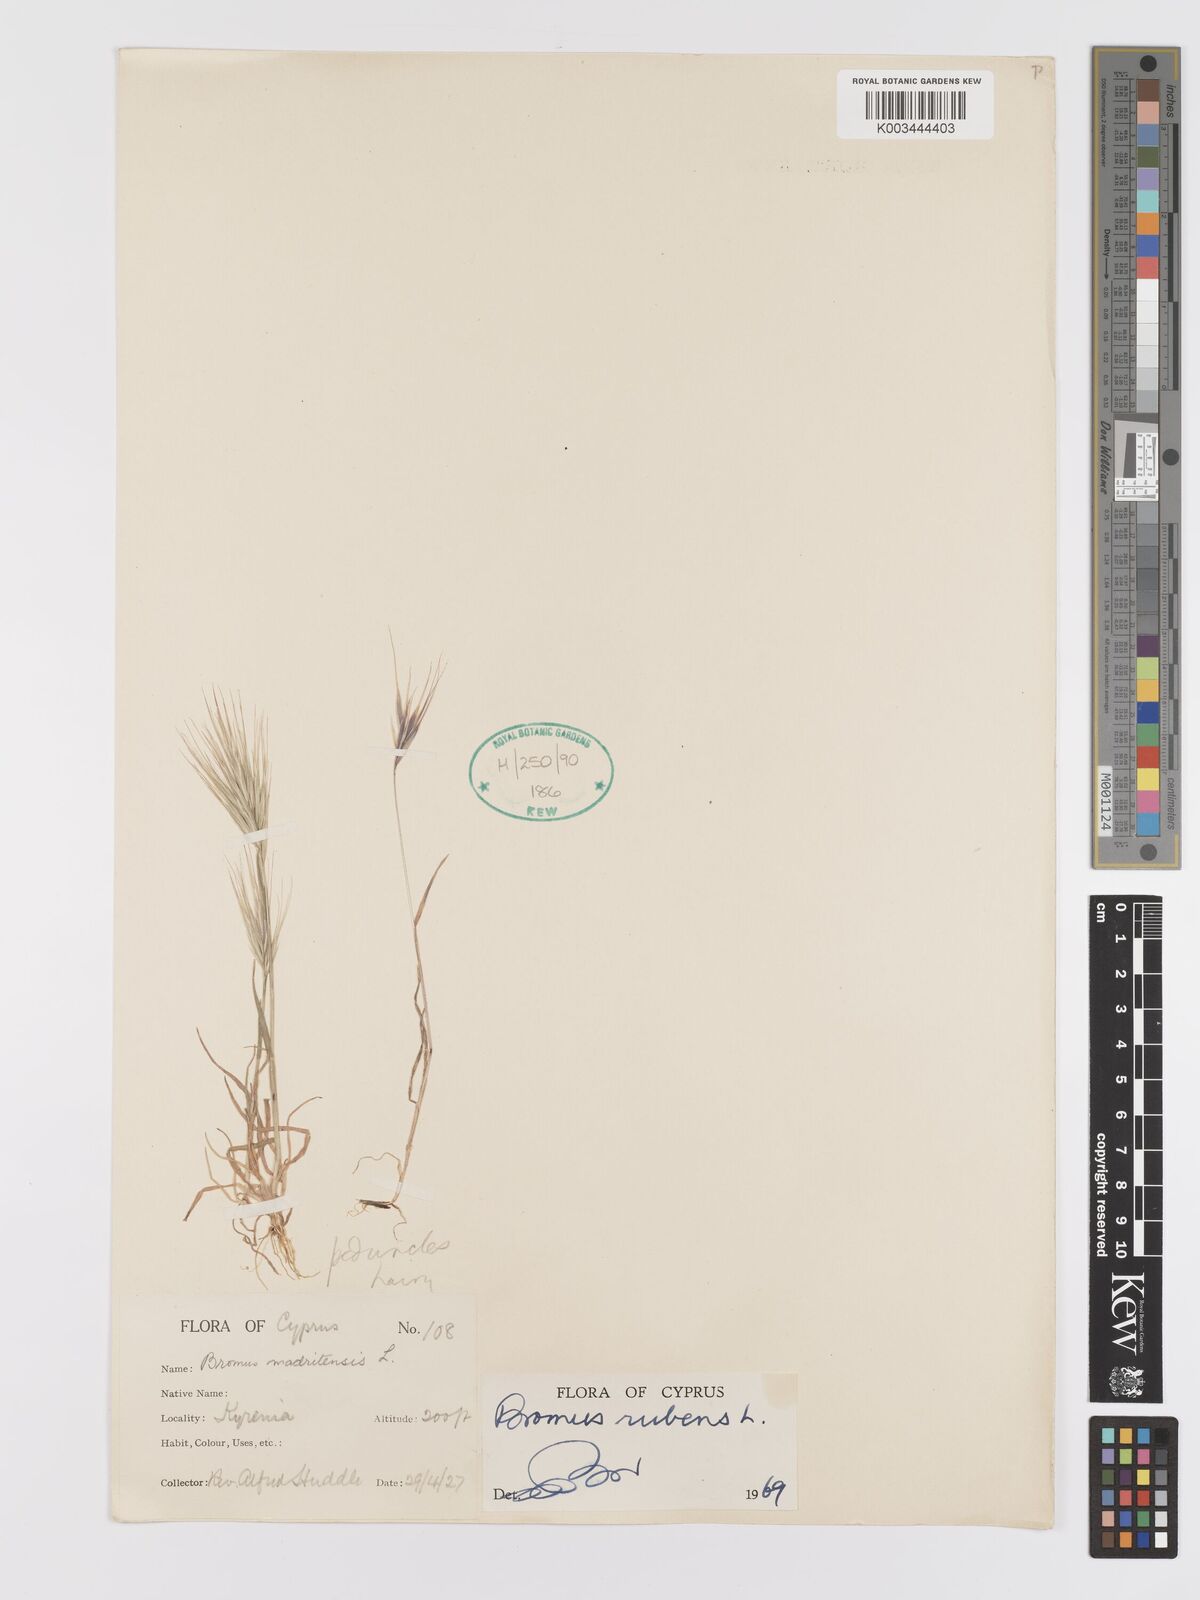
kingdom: Plantae
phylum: Tracheophyta
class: Liliopsida
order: Poales
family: Poaceae
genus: Bromus
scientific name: Bromus rubens
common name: Red brome
